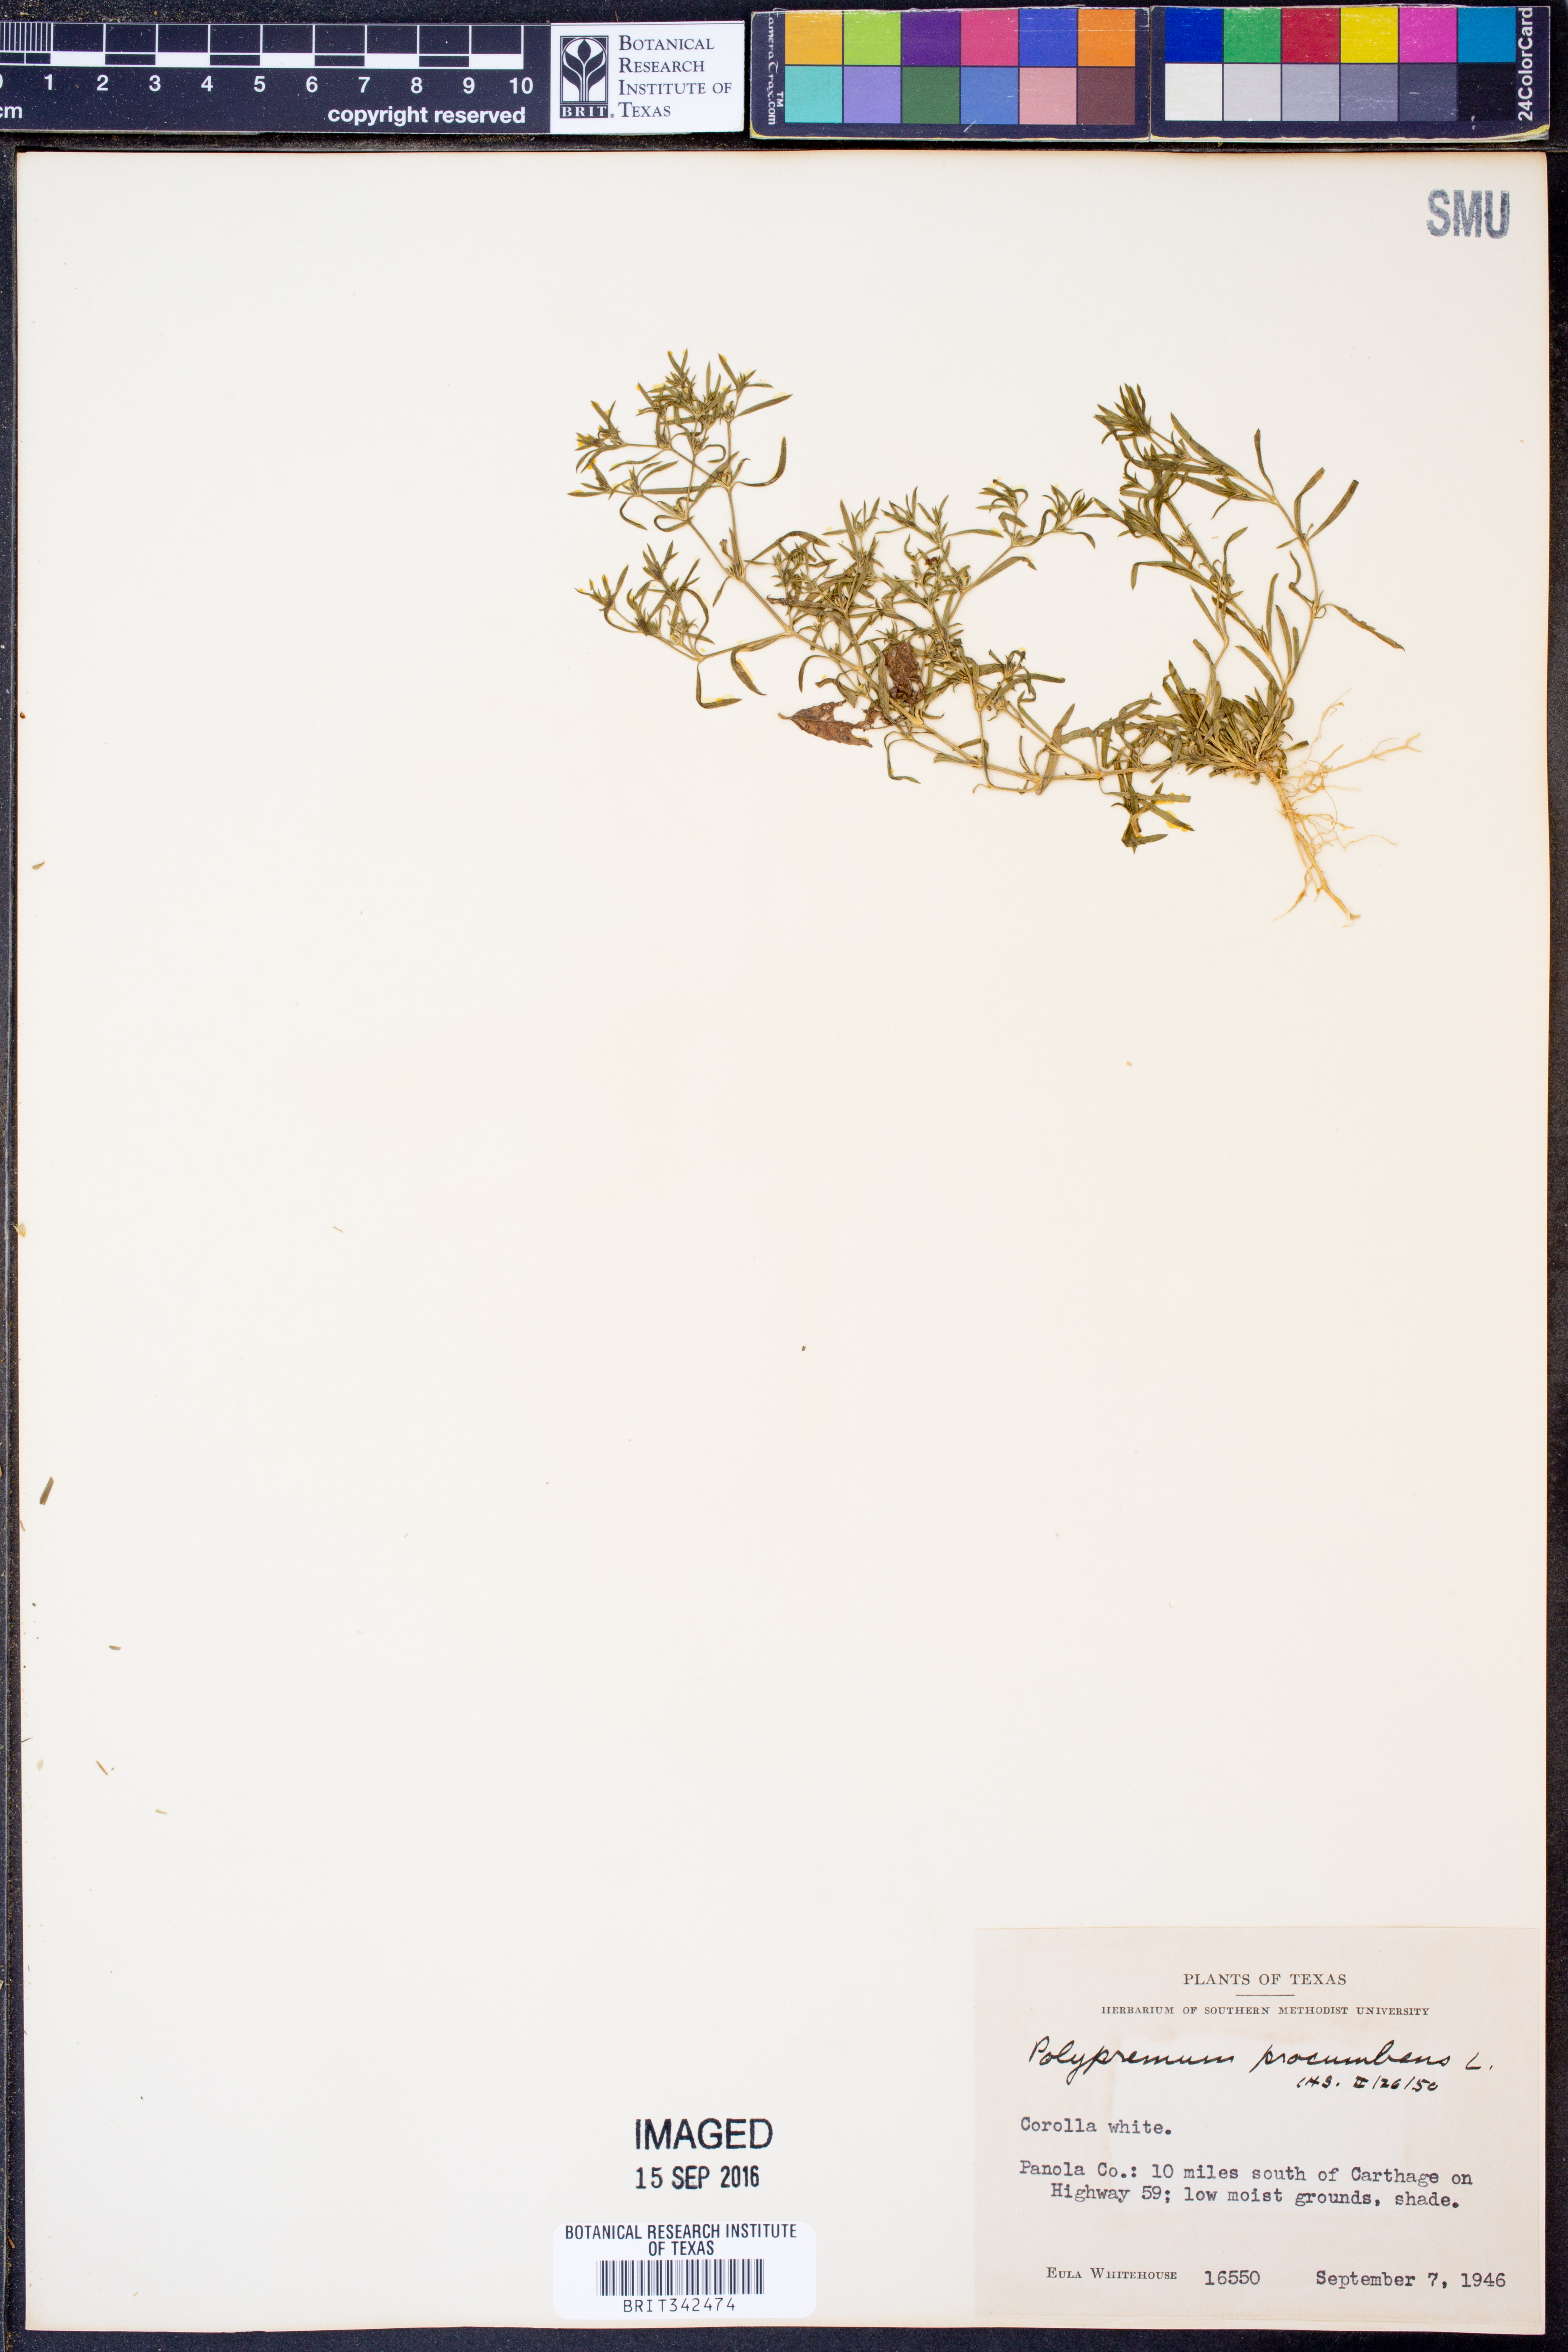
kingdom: Plantae
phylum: Tracheophyta
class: Magnoliopsida
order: Lamiales
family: Tetrachondraceae
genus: Polypremum
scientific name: Polypremum procumbens
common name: Juniper-leaf
